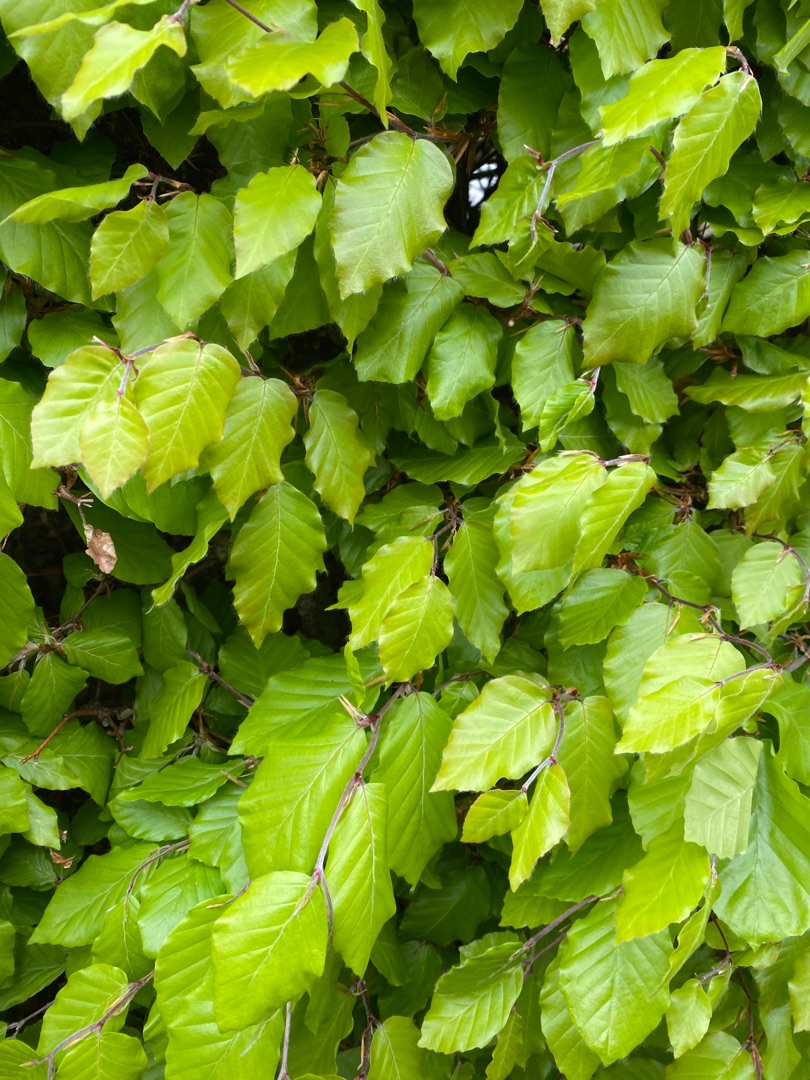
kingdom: Plantae
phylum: Tracheophyta
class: Magnoliopsida
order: Fagales
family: Fagaceae
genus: Fagus
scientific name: Fagus sylvatica
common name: Bøg
